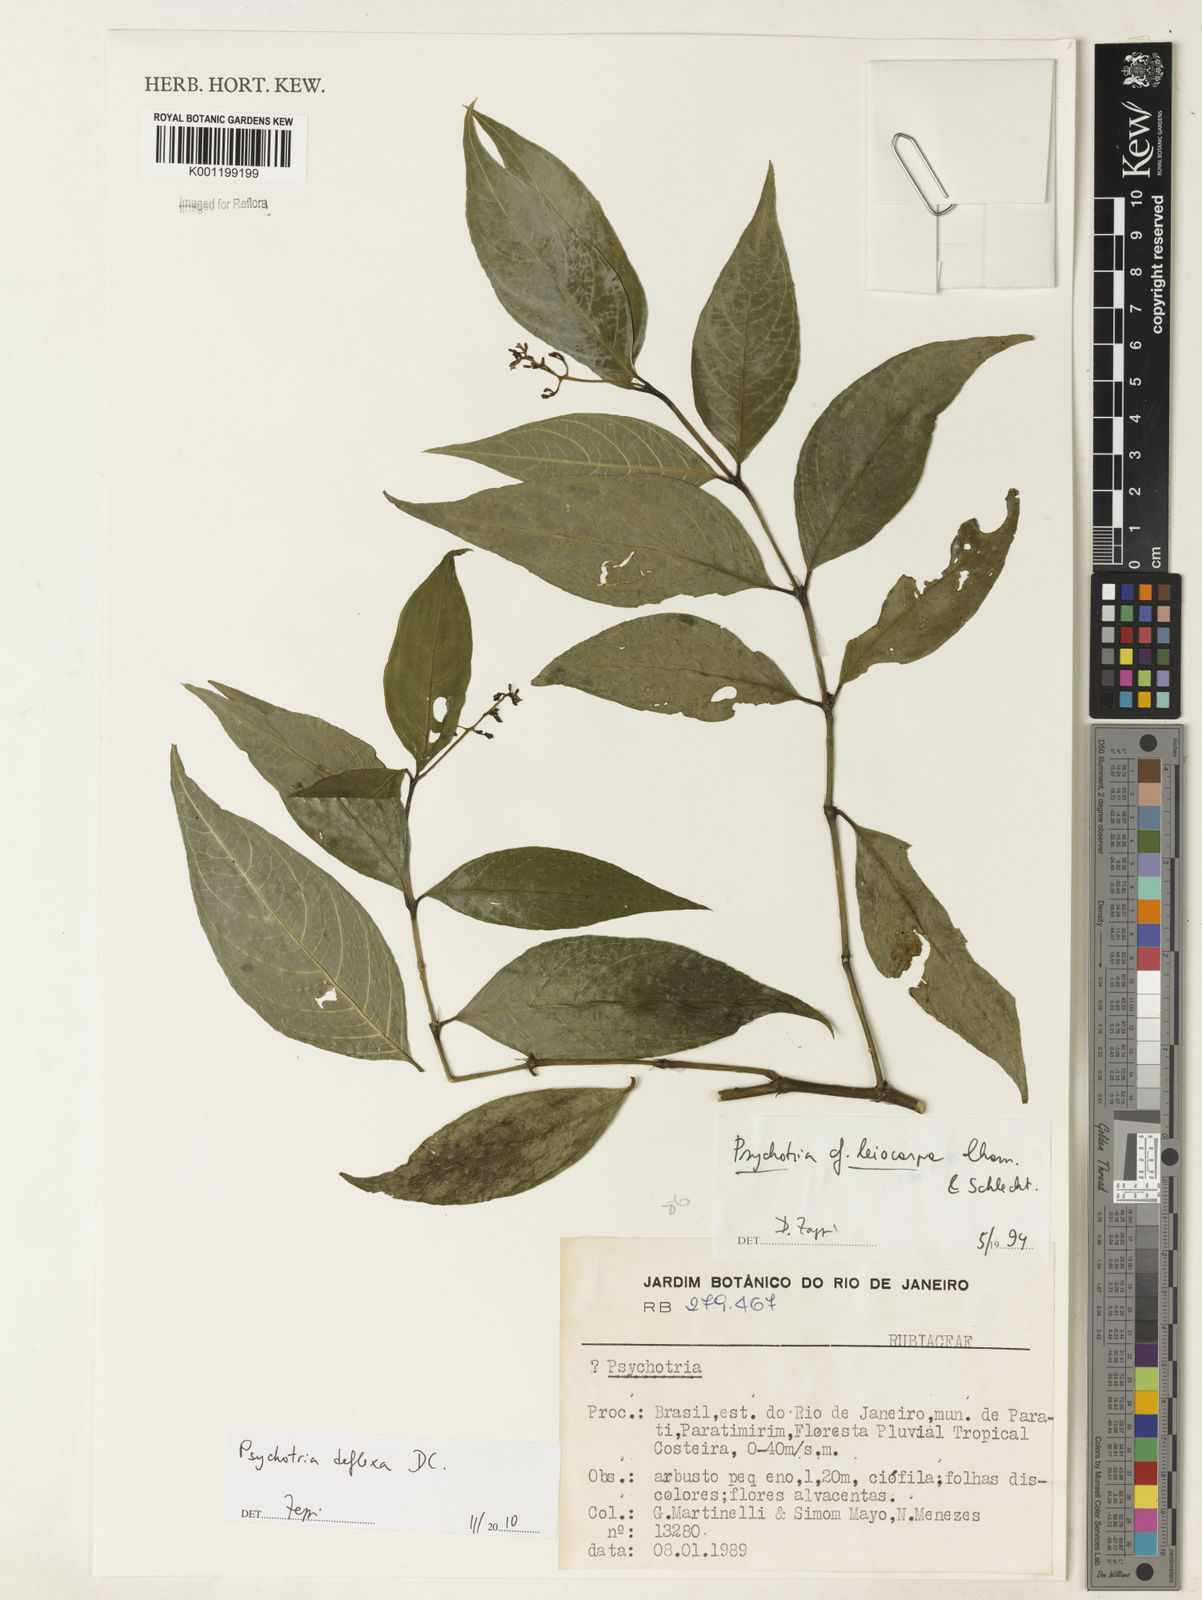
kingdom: Plantae
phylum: Tracheophyta
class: Magnoliopsida
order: Gentianales
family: Rubiaceae
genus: Palicourea
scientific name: Palicourea deflexa
